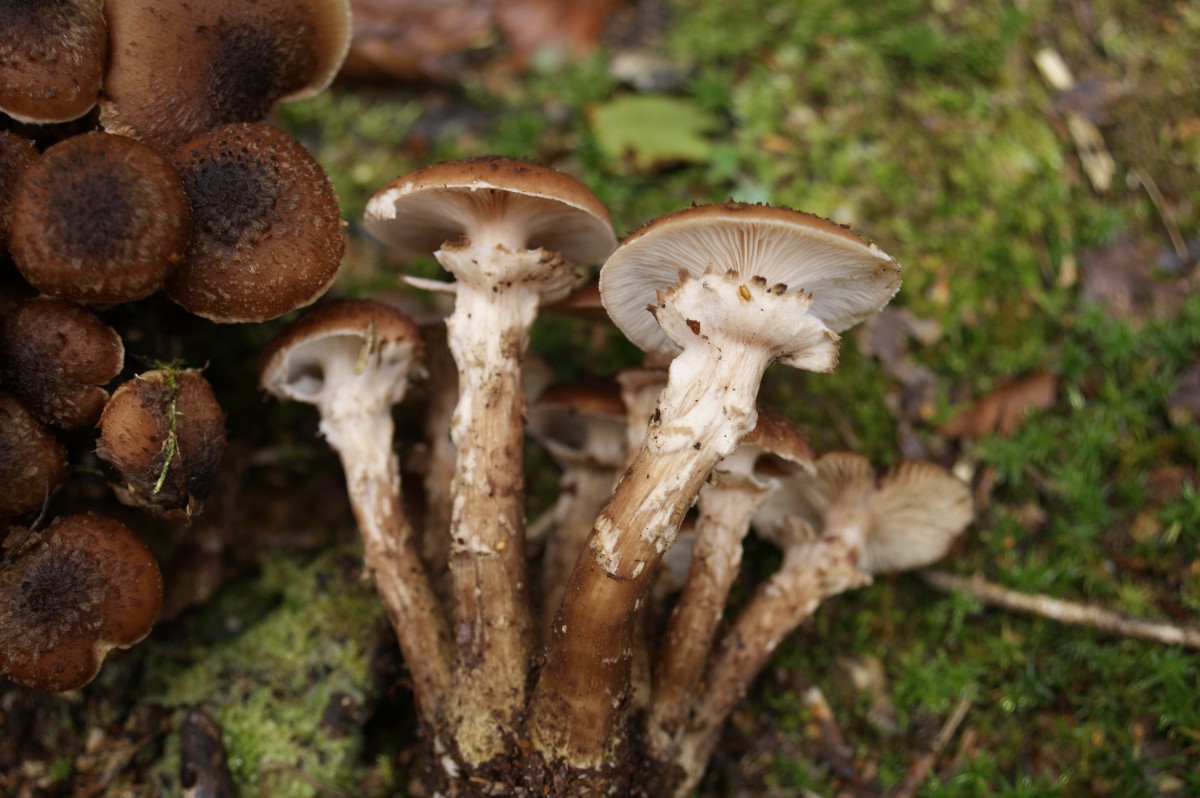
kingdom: Fungi
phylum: Basidiomycota
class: Agaricomycetes
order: Agaricales
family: Physalacriaceae
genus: Armillaria
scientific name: Armillaria ostoyae
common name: mørk honningsvamp
